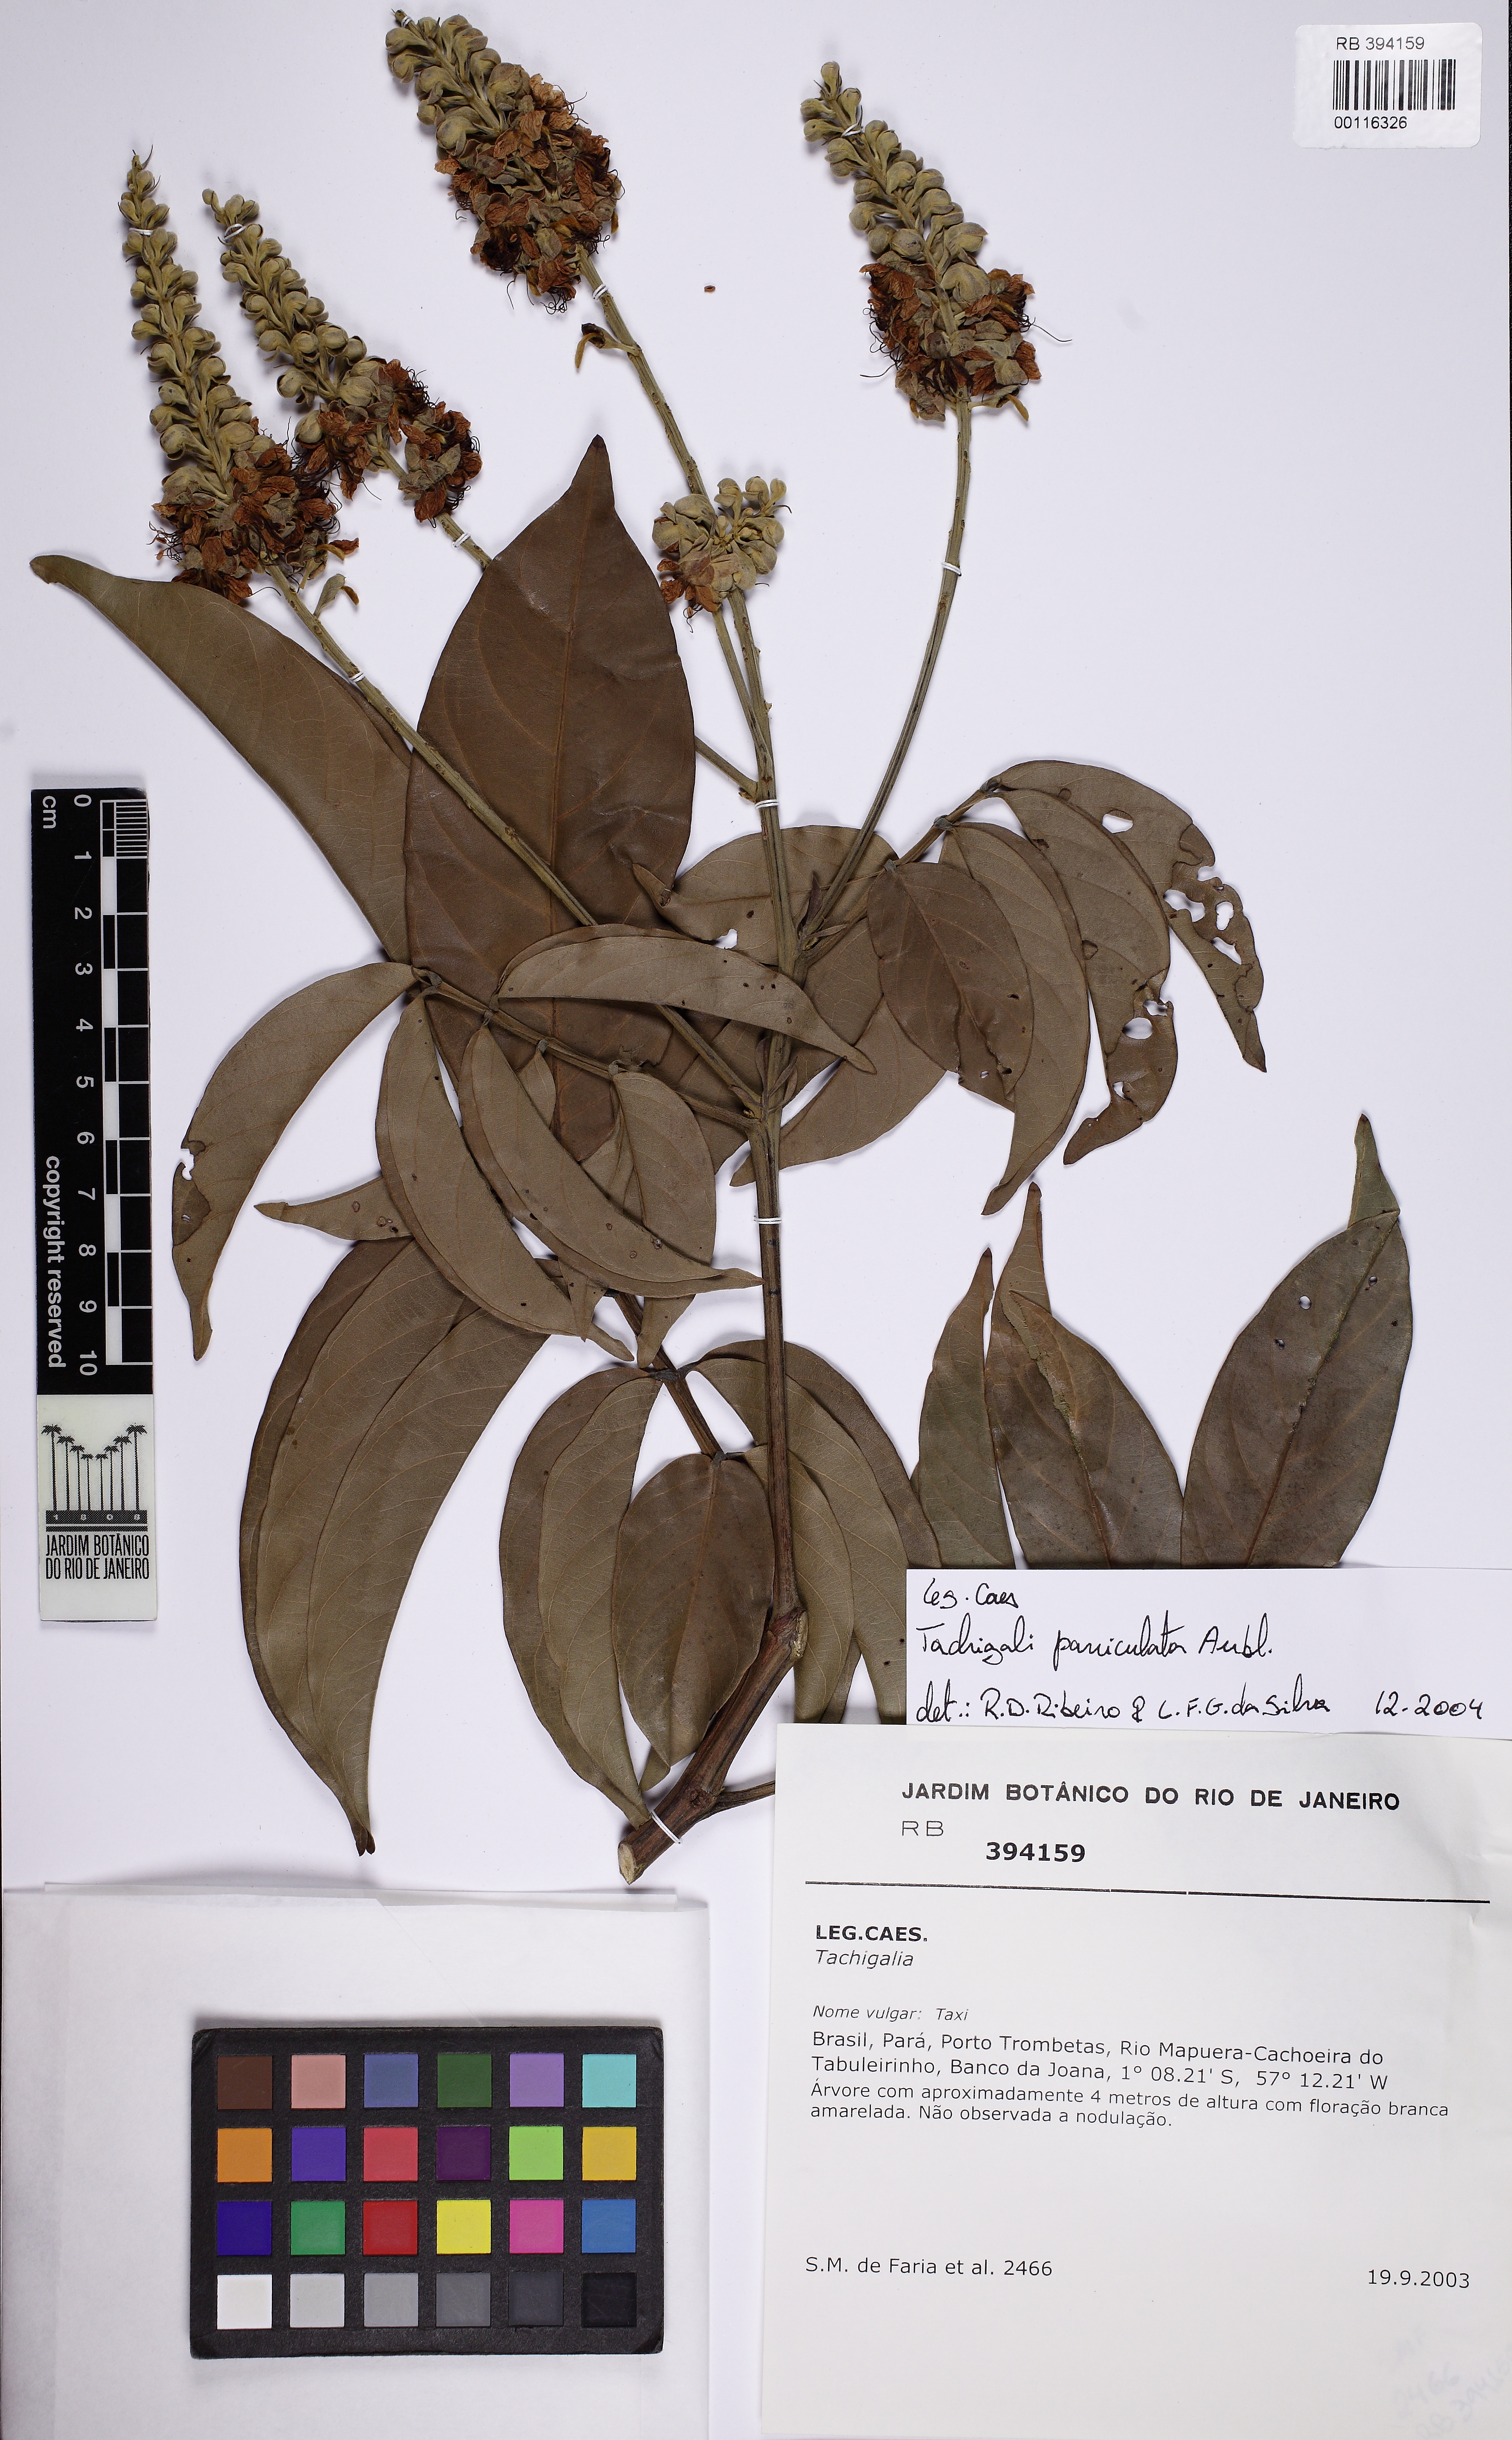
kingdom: Plantae
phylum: Tracheophyta
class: Magnoliopsida
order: Fabales
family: Fabaceae
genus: Tachigali
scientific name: Tachigali paniculata
